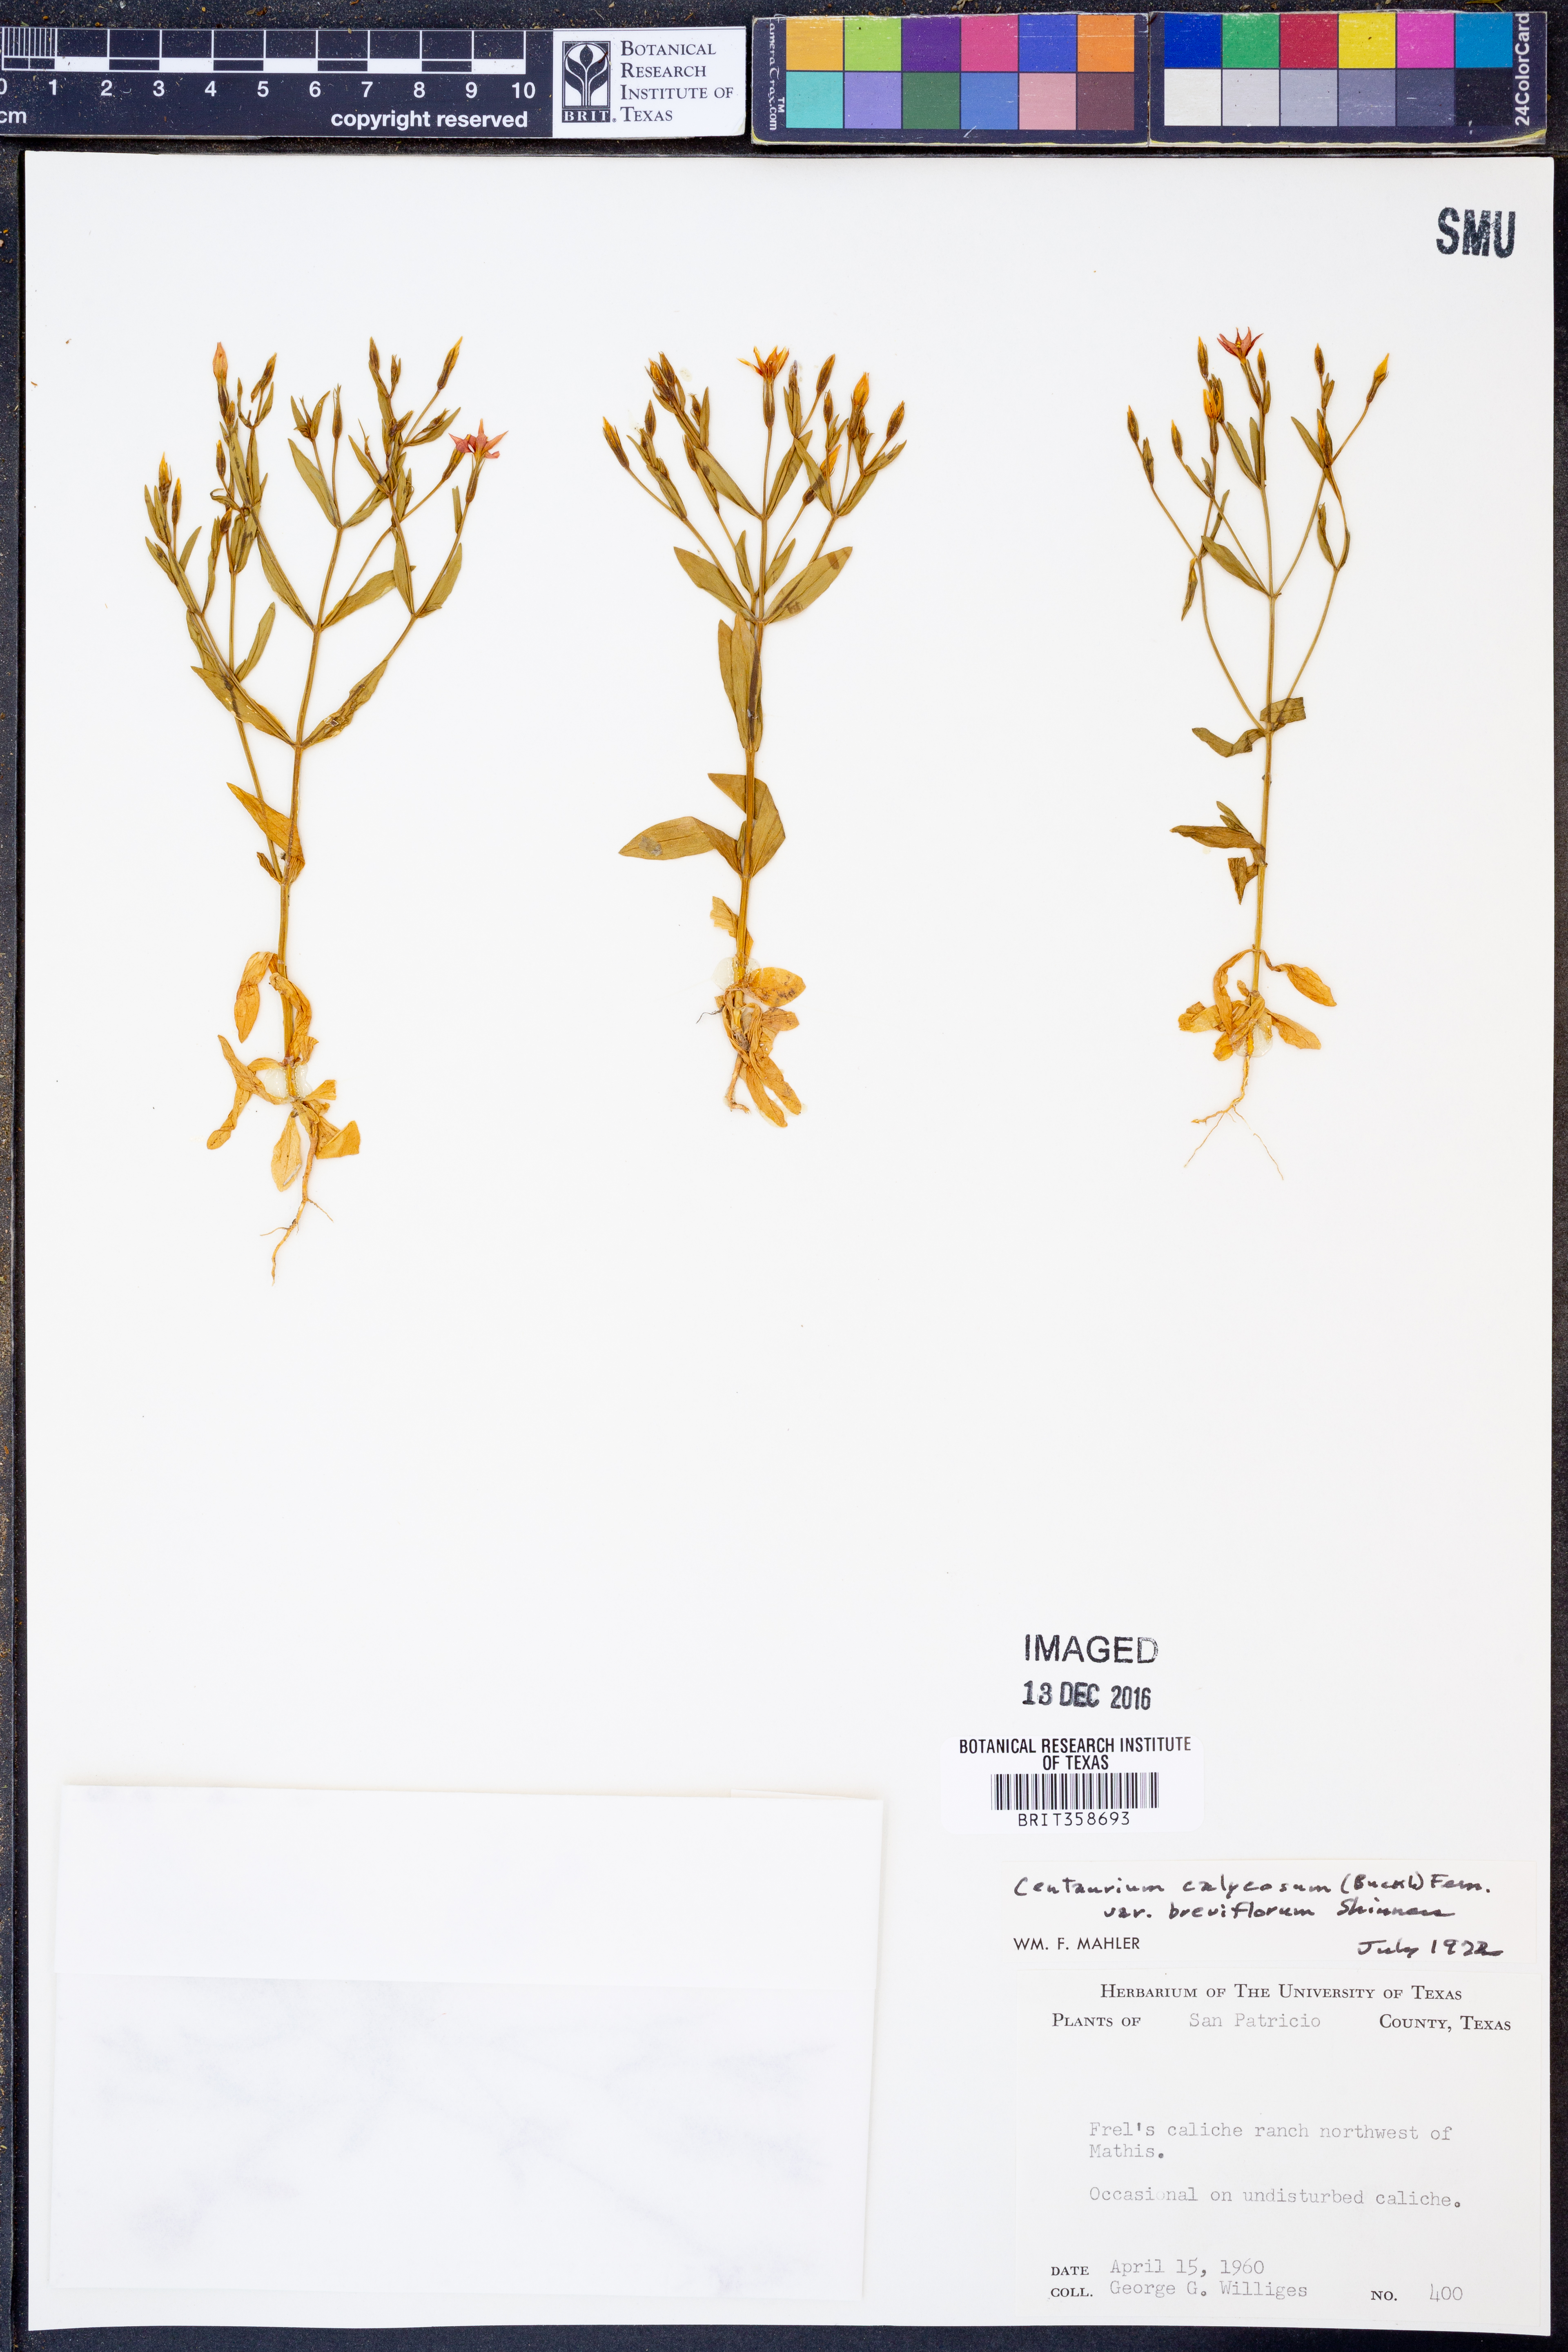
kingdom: Plantae
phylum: Tracheophyta
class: Magnoliopsida
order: Gentianales
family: Gentianaceae
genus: Zeltnera
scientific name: Zeltnera breviflora
